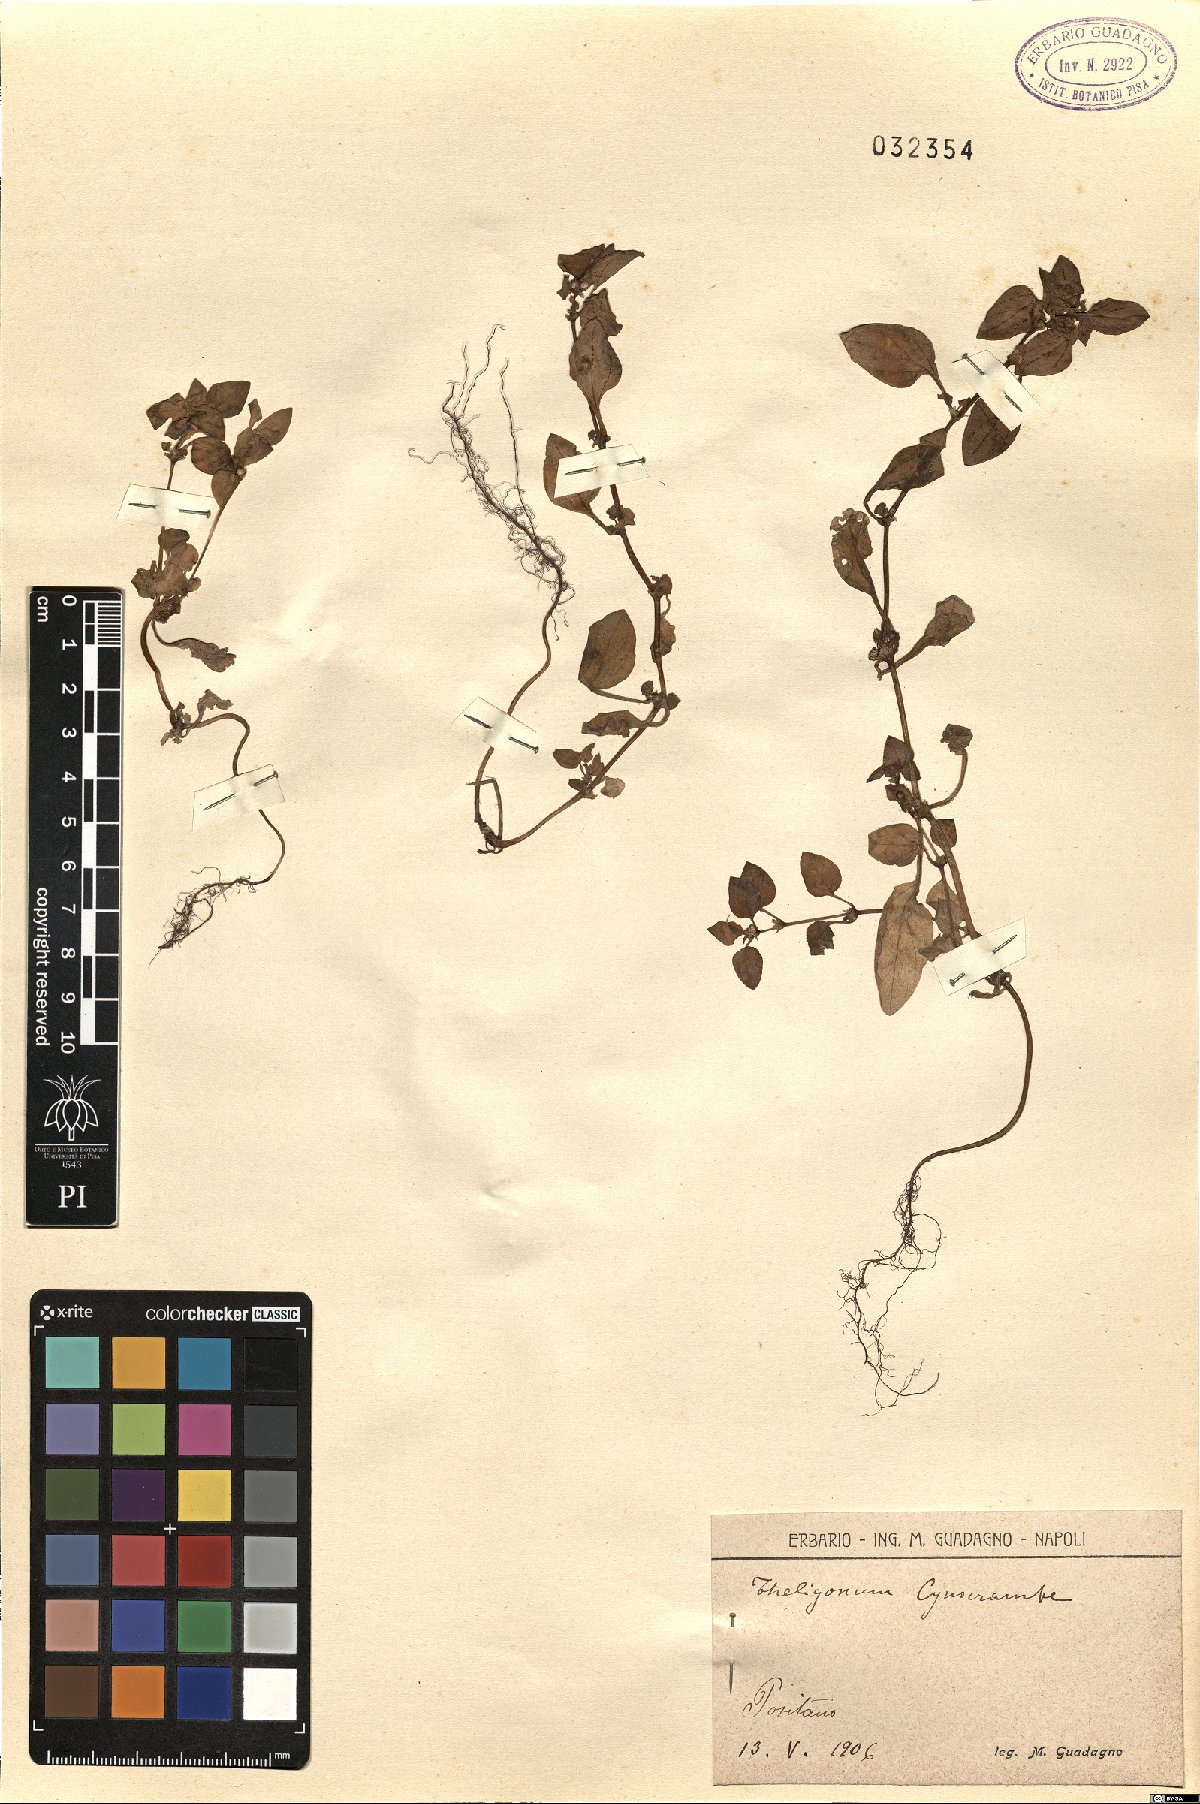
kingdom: Plantae
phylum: Tracheophyta
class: Magnoliopsida
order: Gentianales
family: Rubiaceae
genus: Theligonum
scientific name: Theligonum cynocrambe
